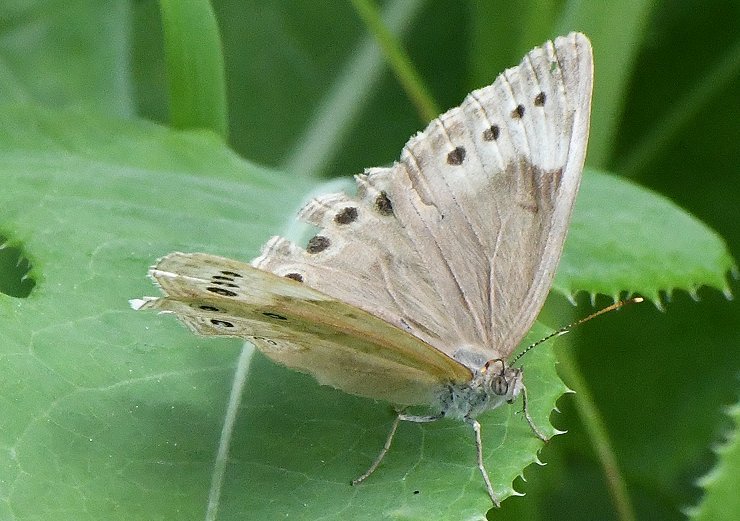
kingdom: Animalia
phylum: Arthropoda
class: Insecta
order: Lepidoptera
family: Nymphalidae
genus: Lethe
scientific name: Lethe eurydice
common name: Eyed Brown
